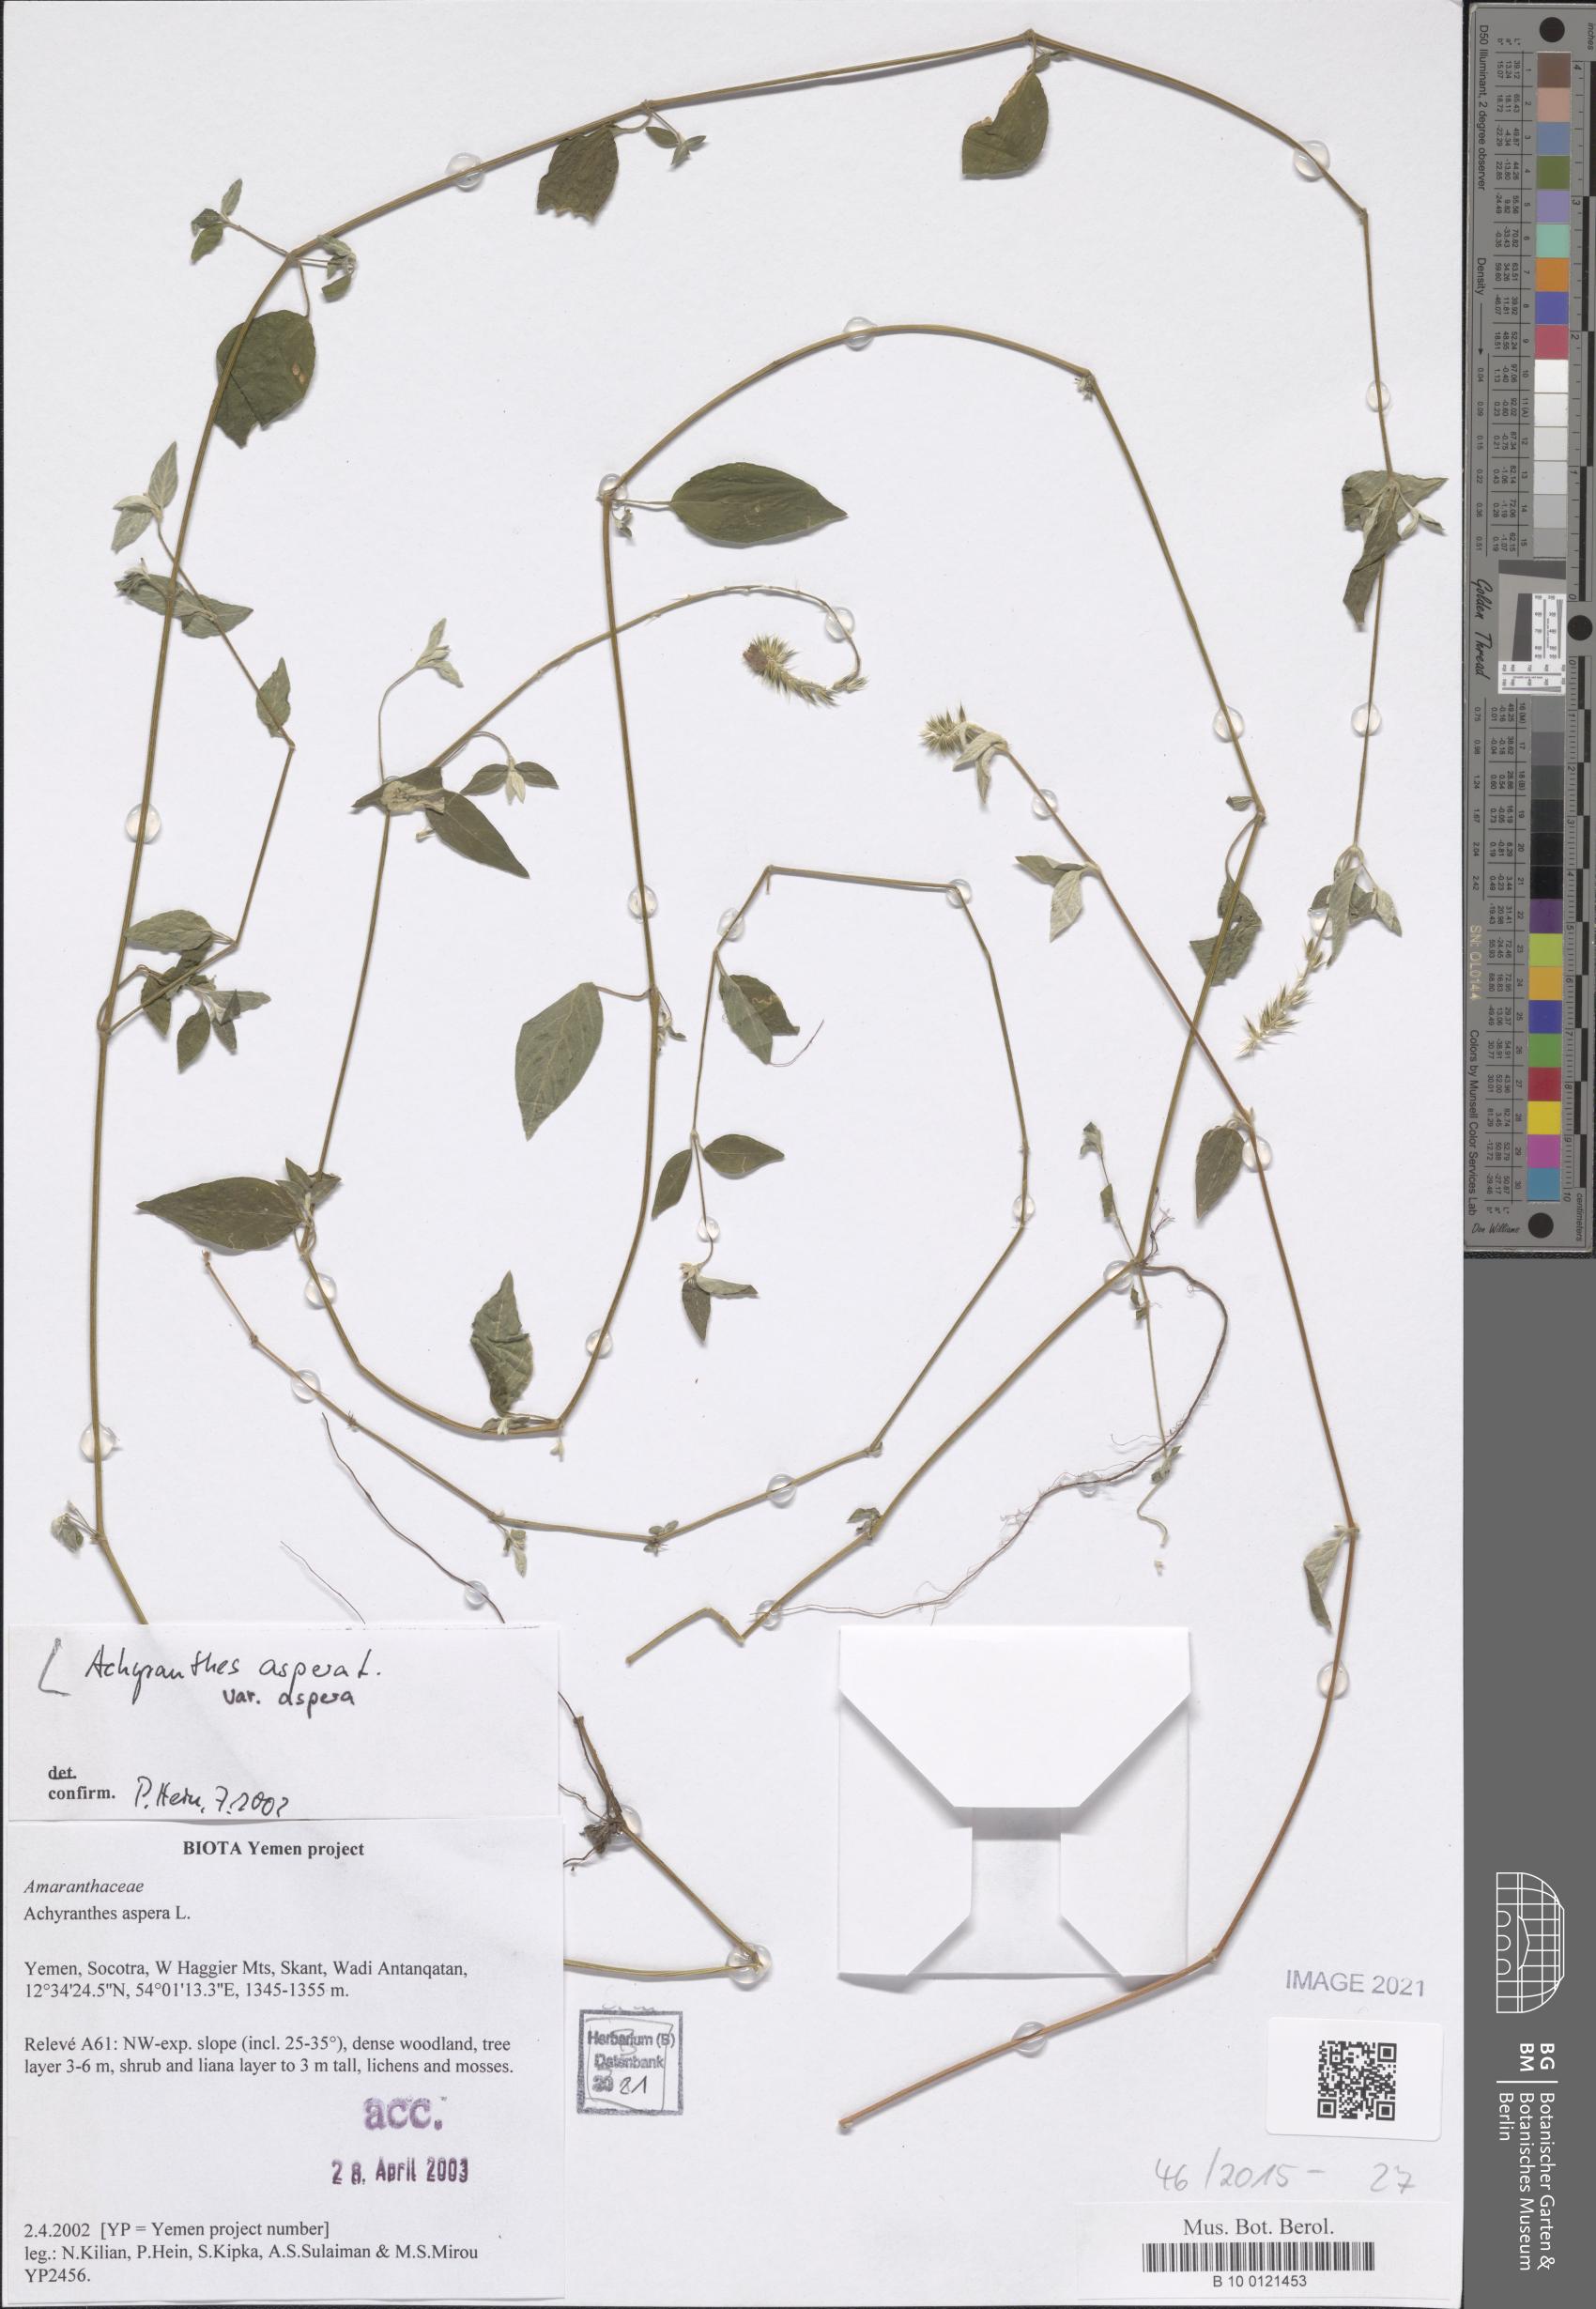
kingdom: Plantae
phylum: Tracheophyta
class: Magnoliopsida
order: Caryophyllales
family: Amaranthaceae
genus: Achyranthes
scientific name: Achyranthes aspera
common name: Devil's horsewhip
